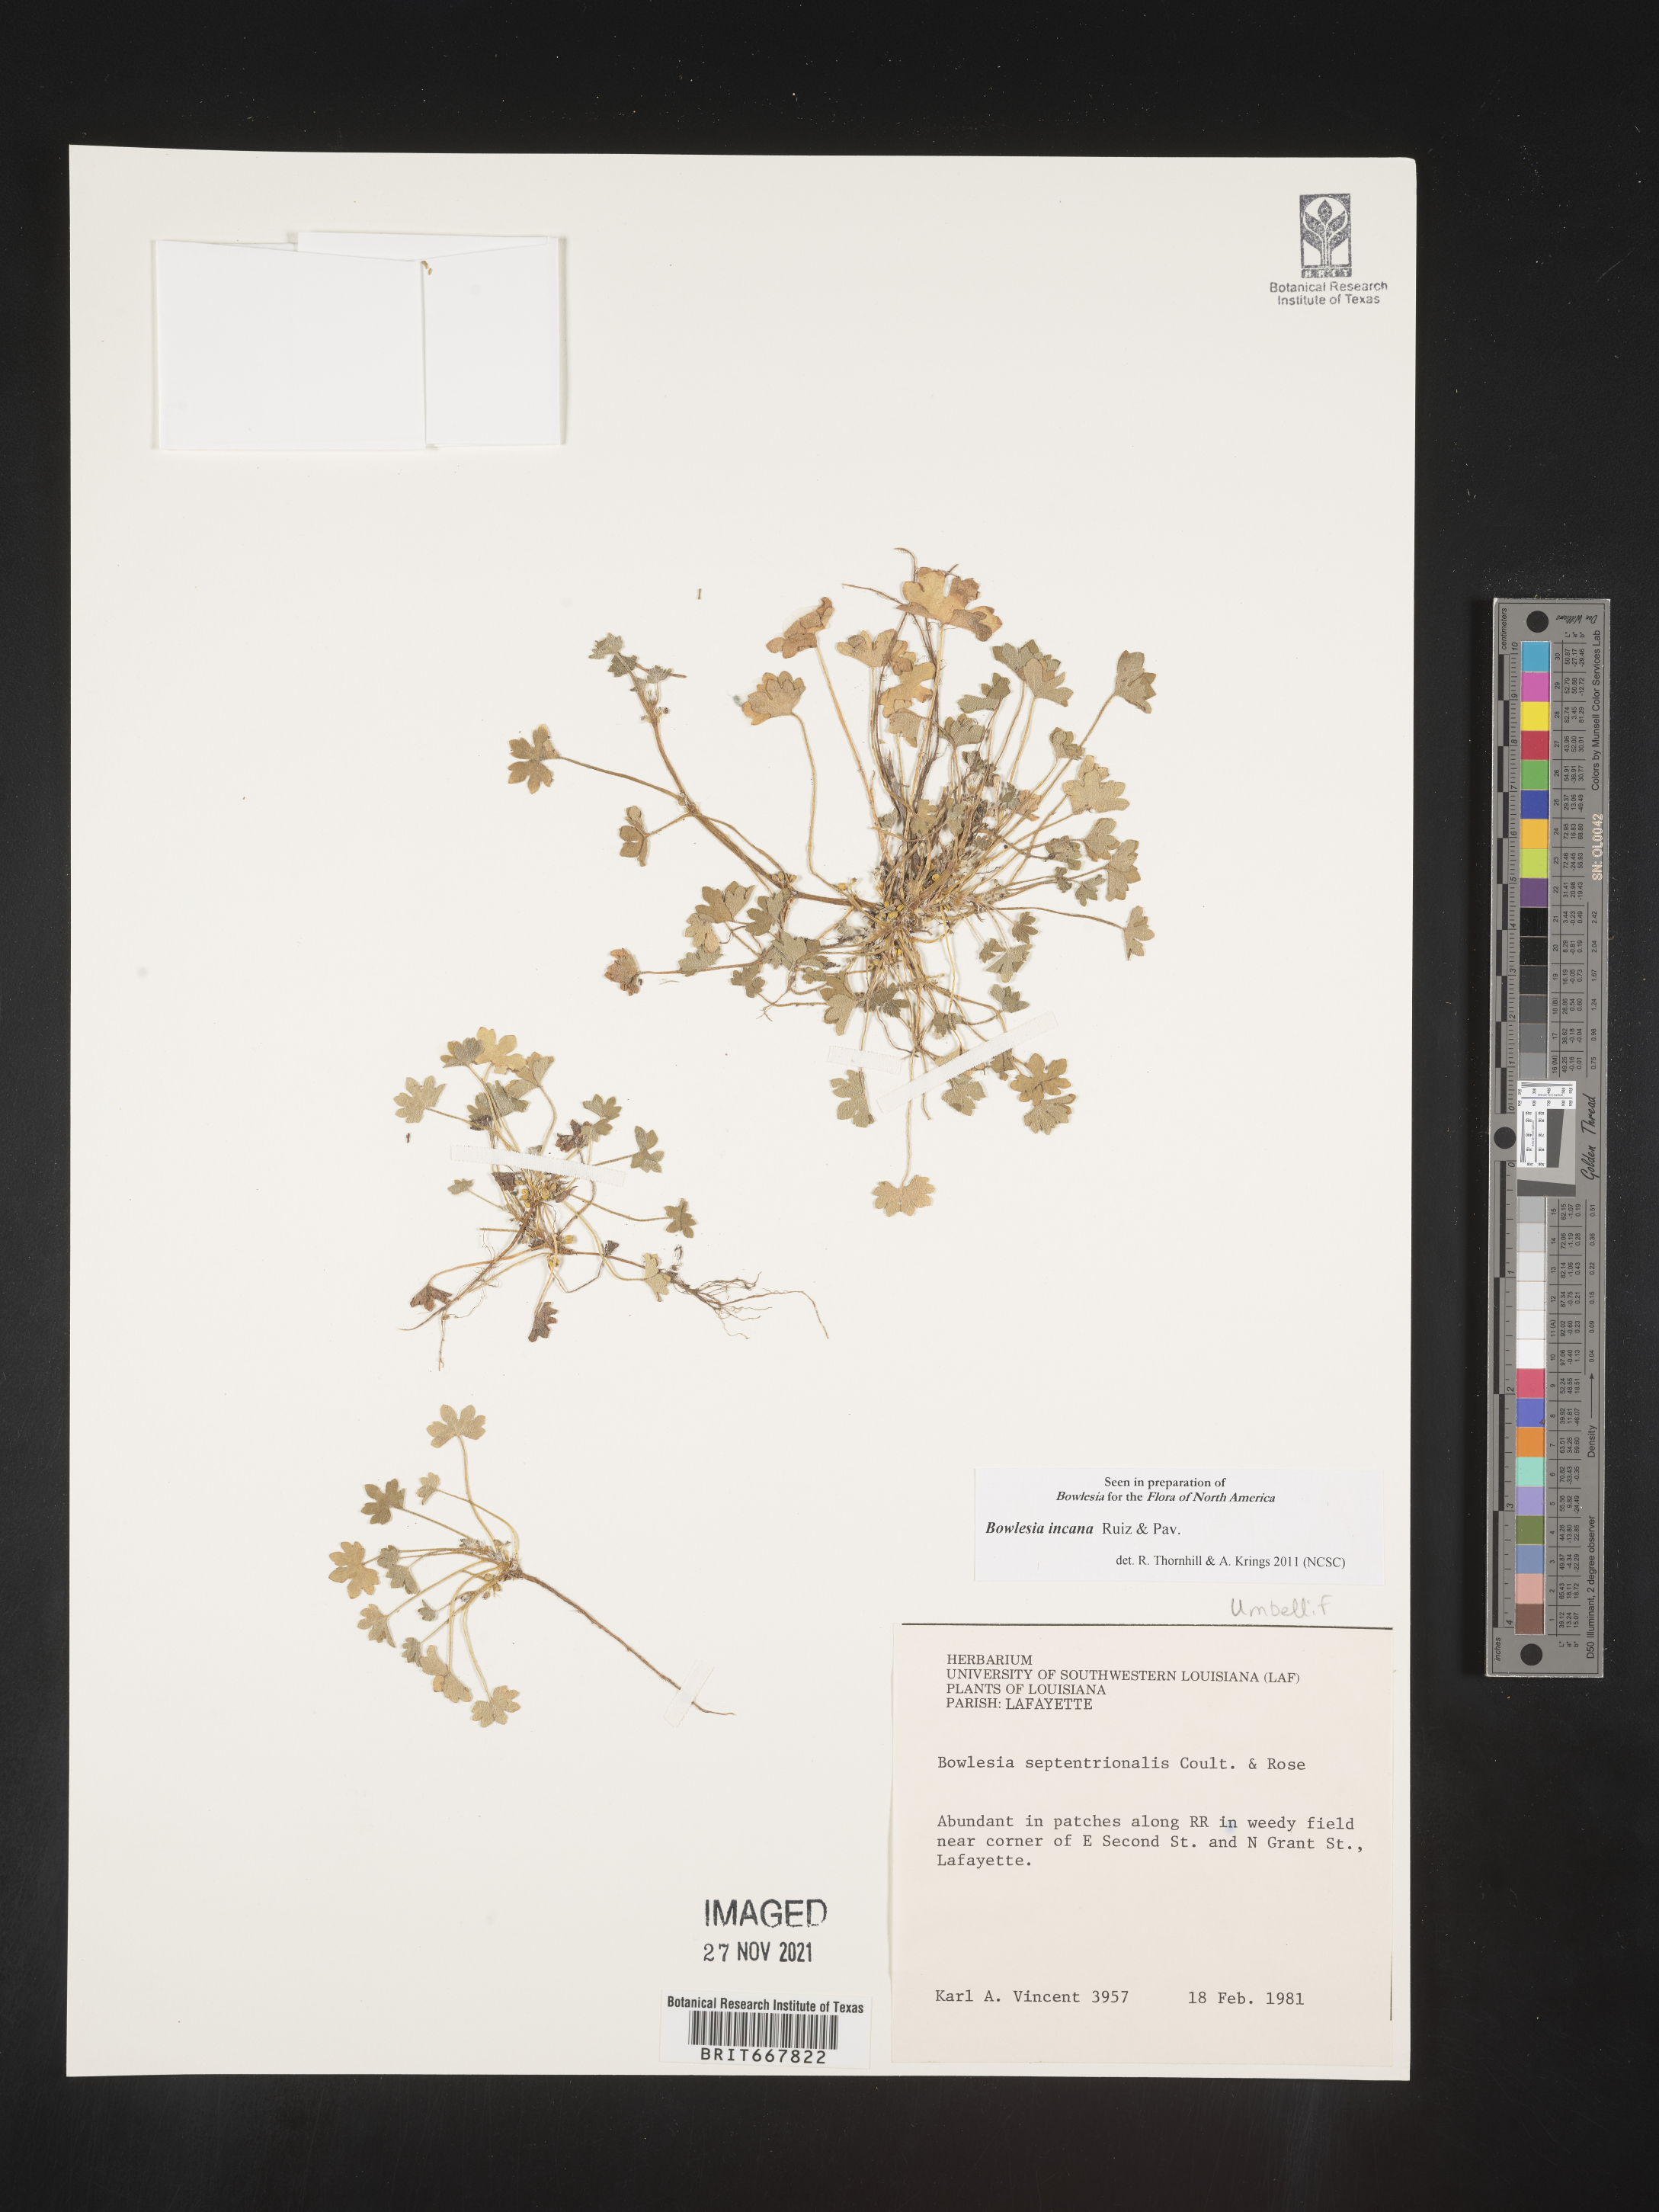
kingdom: Plantae
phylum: Tracheophyta
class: Magnoliopsida
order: Apiales
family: Apiaceae
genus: Bowlesia
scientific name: Bowlesia
